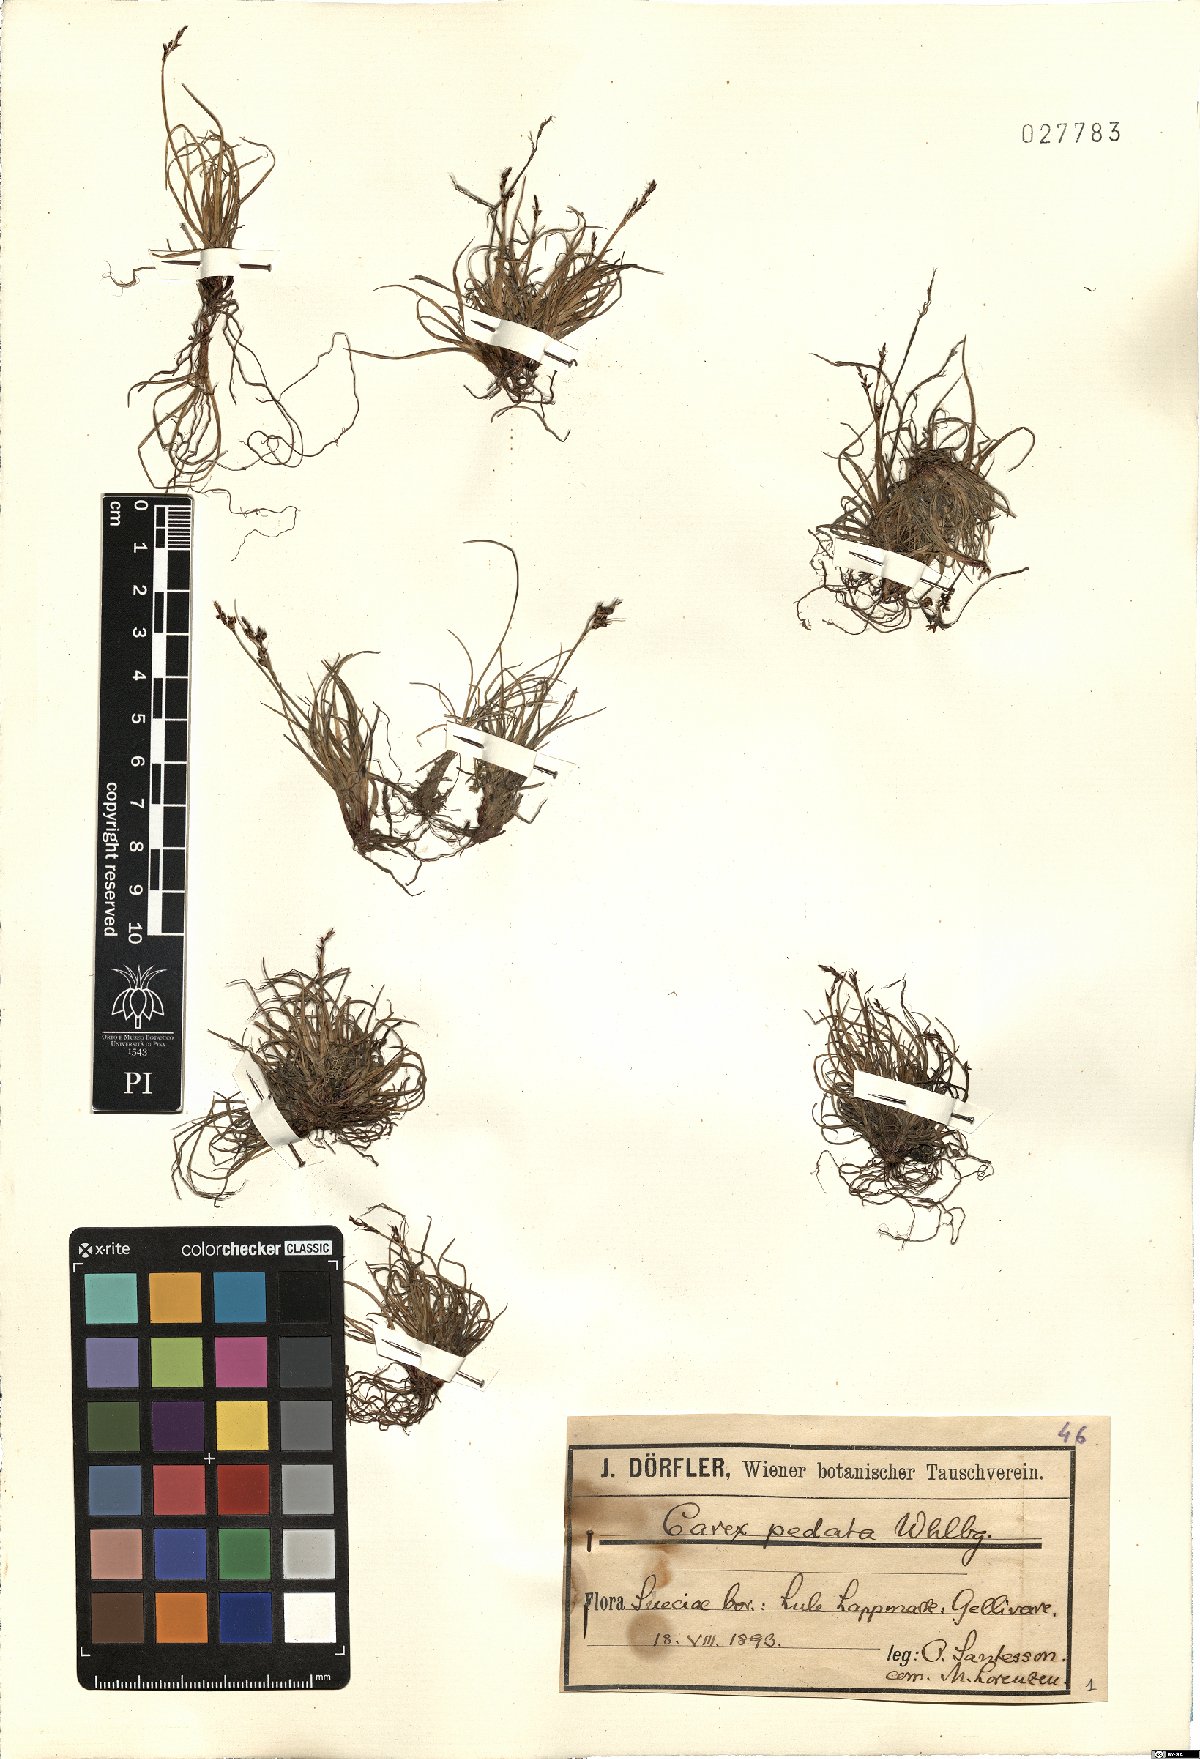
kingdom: Plantae
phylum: Tracheophyta
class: Liliopsida
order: Poales
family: Cyperaceae
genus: Carex
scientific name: Carex ornithopoda
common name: Bird's-foot sedge
